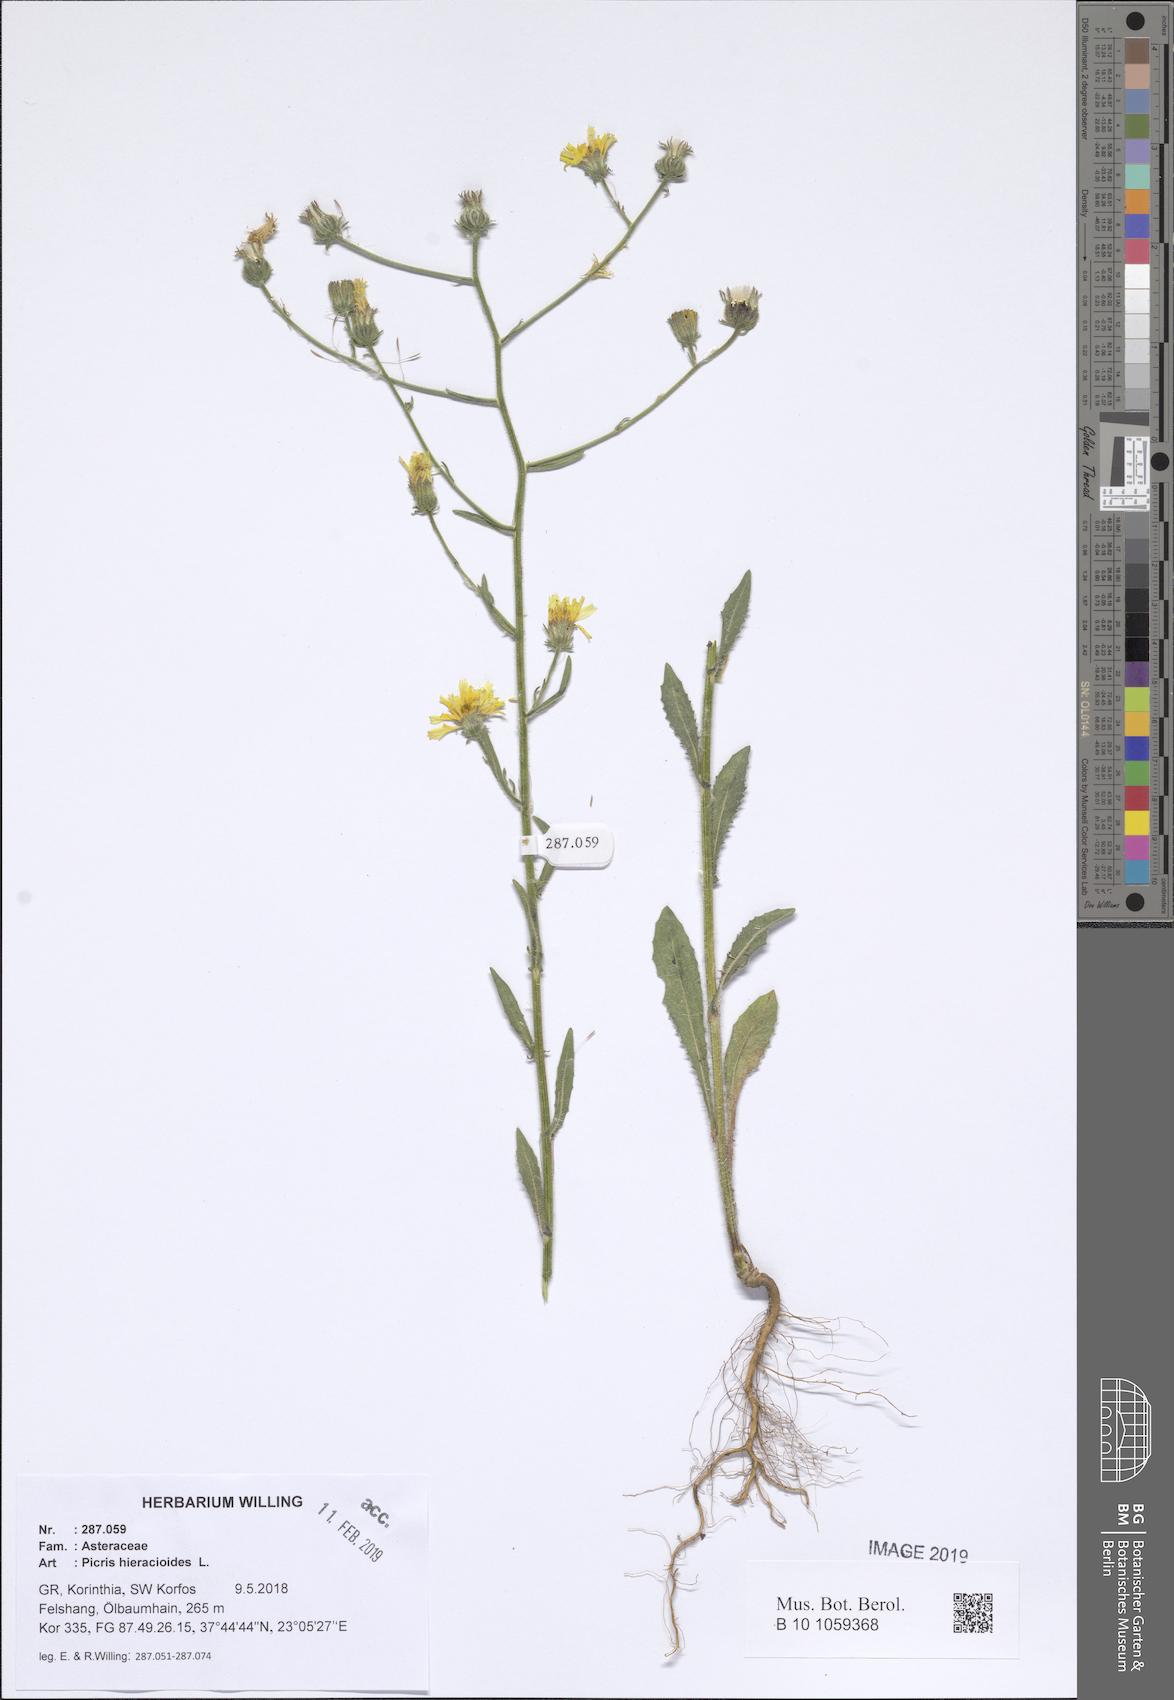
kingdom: Plantae
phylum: Tracheophyta
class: Magnoliopsida
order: Asterales
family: Asteraceae
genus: Picris
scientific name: Picris hieracioides
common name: Hawkweed oxtongue
